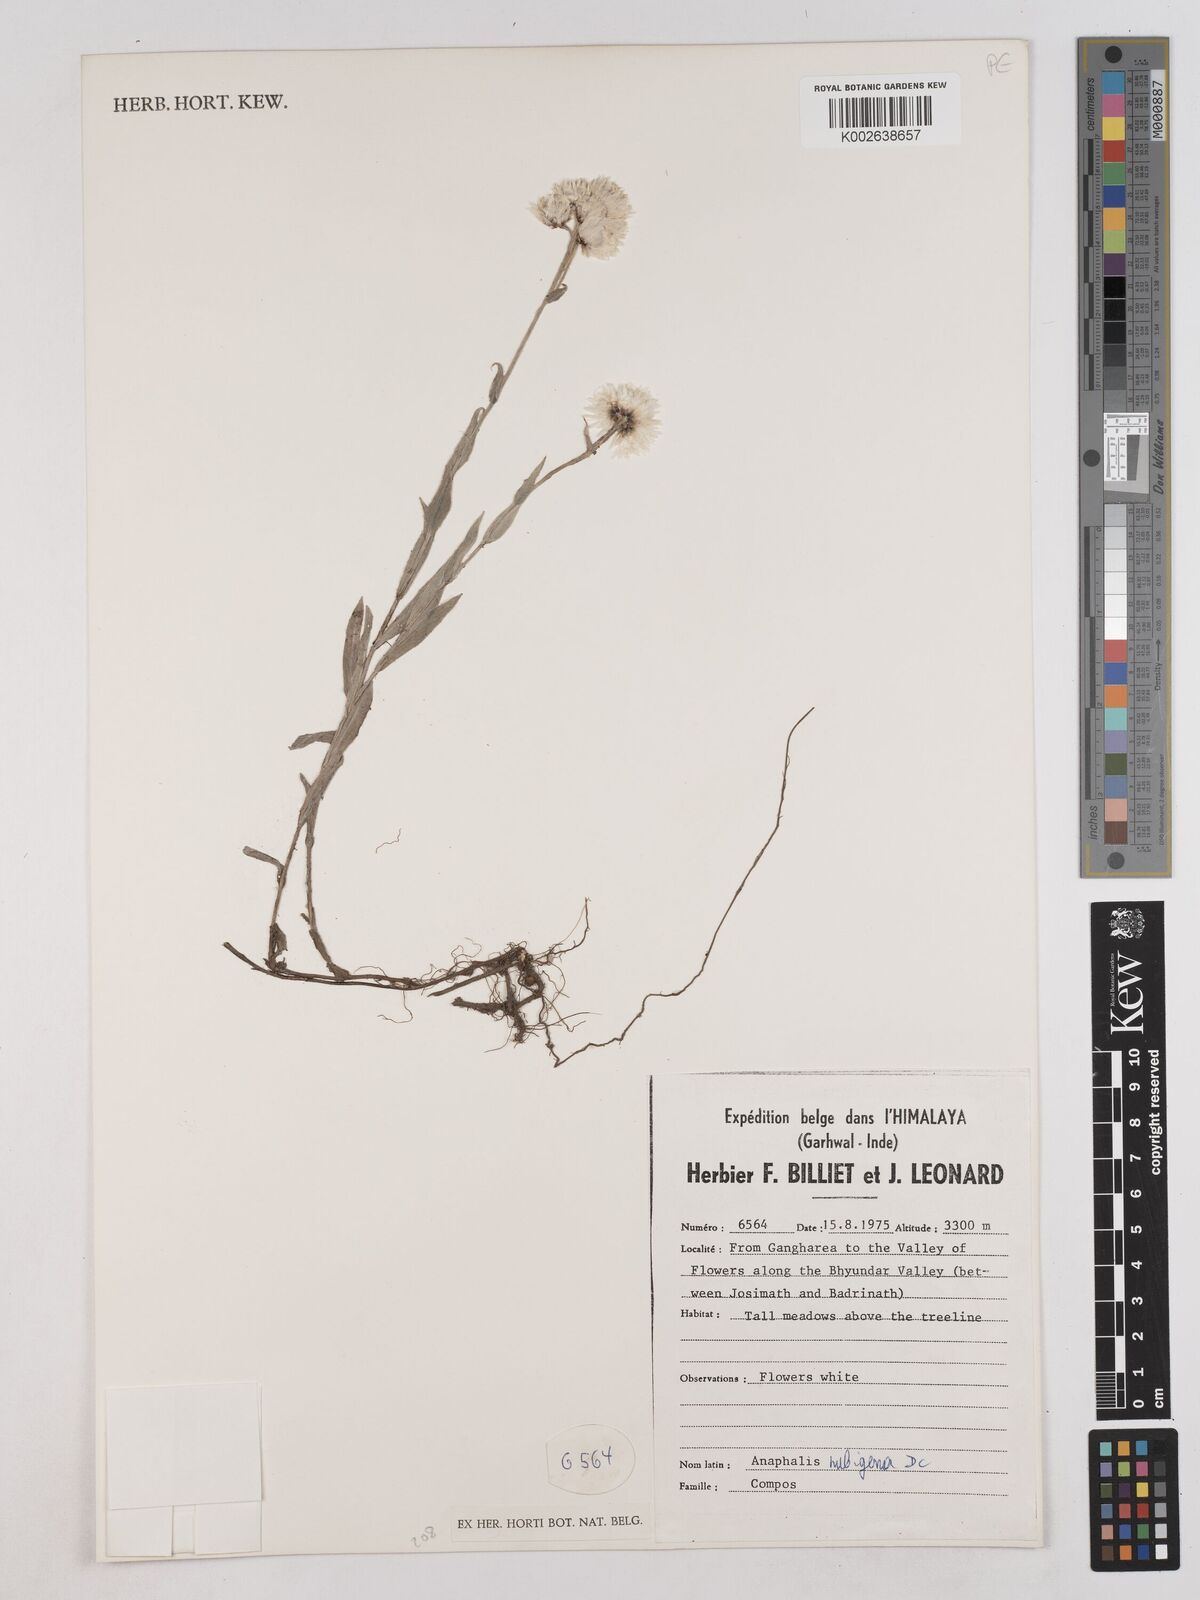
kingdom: Plantae
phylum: Tracheophyta
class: Magnoliopsida
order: Asterales
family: Asteraceae
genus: Anaphalioides
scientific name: Anaphalioides trinervis
